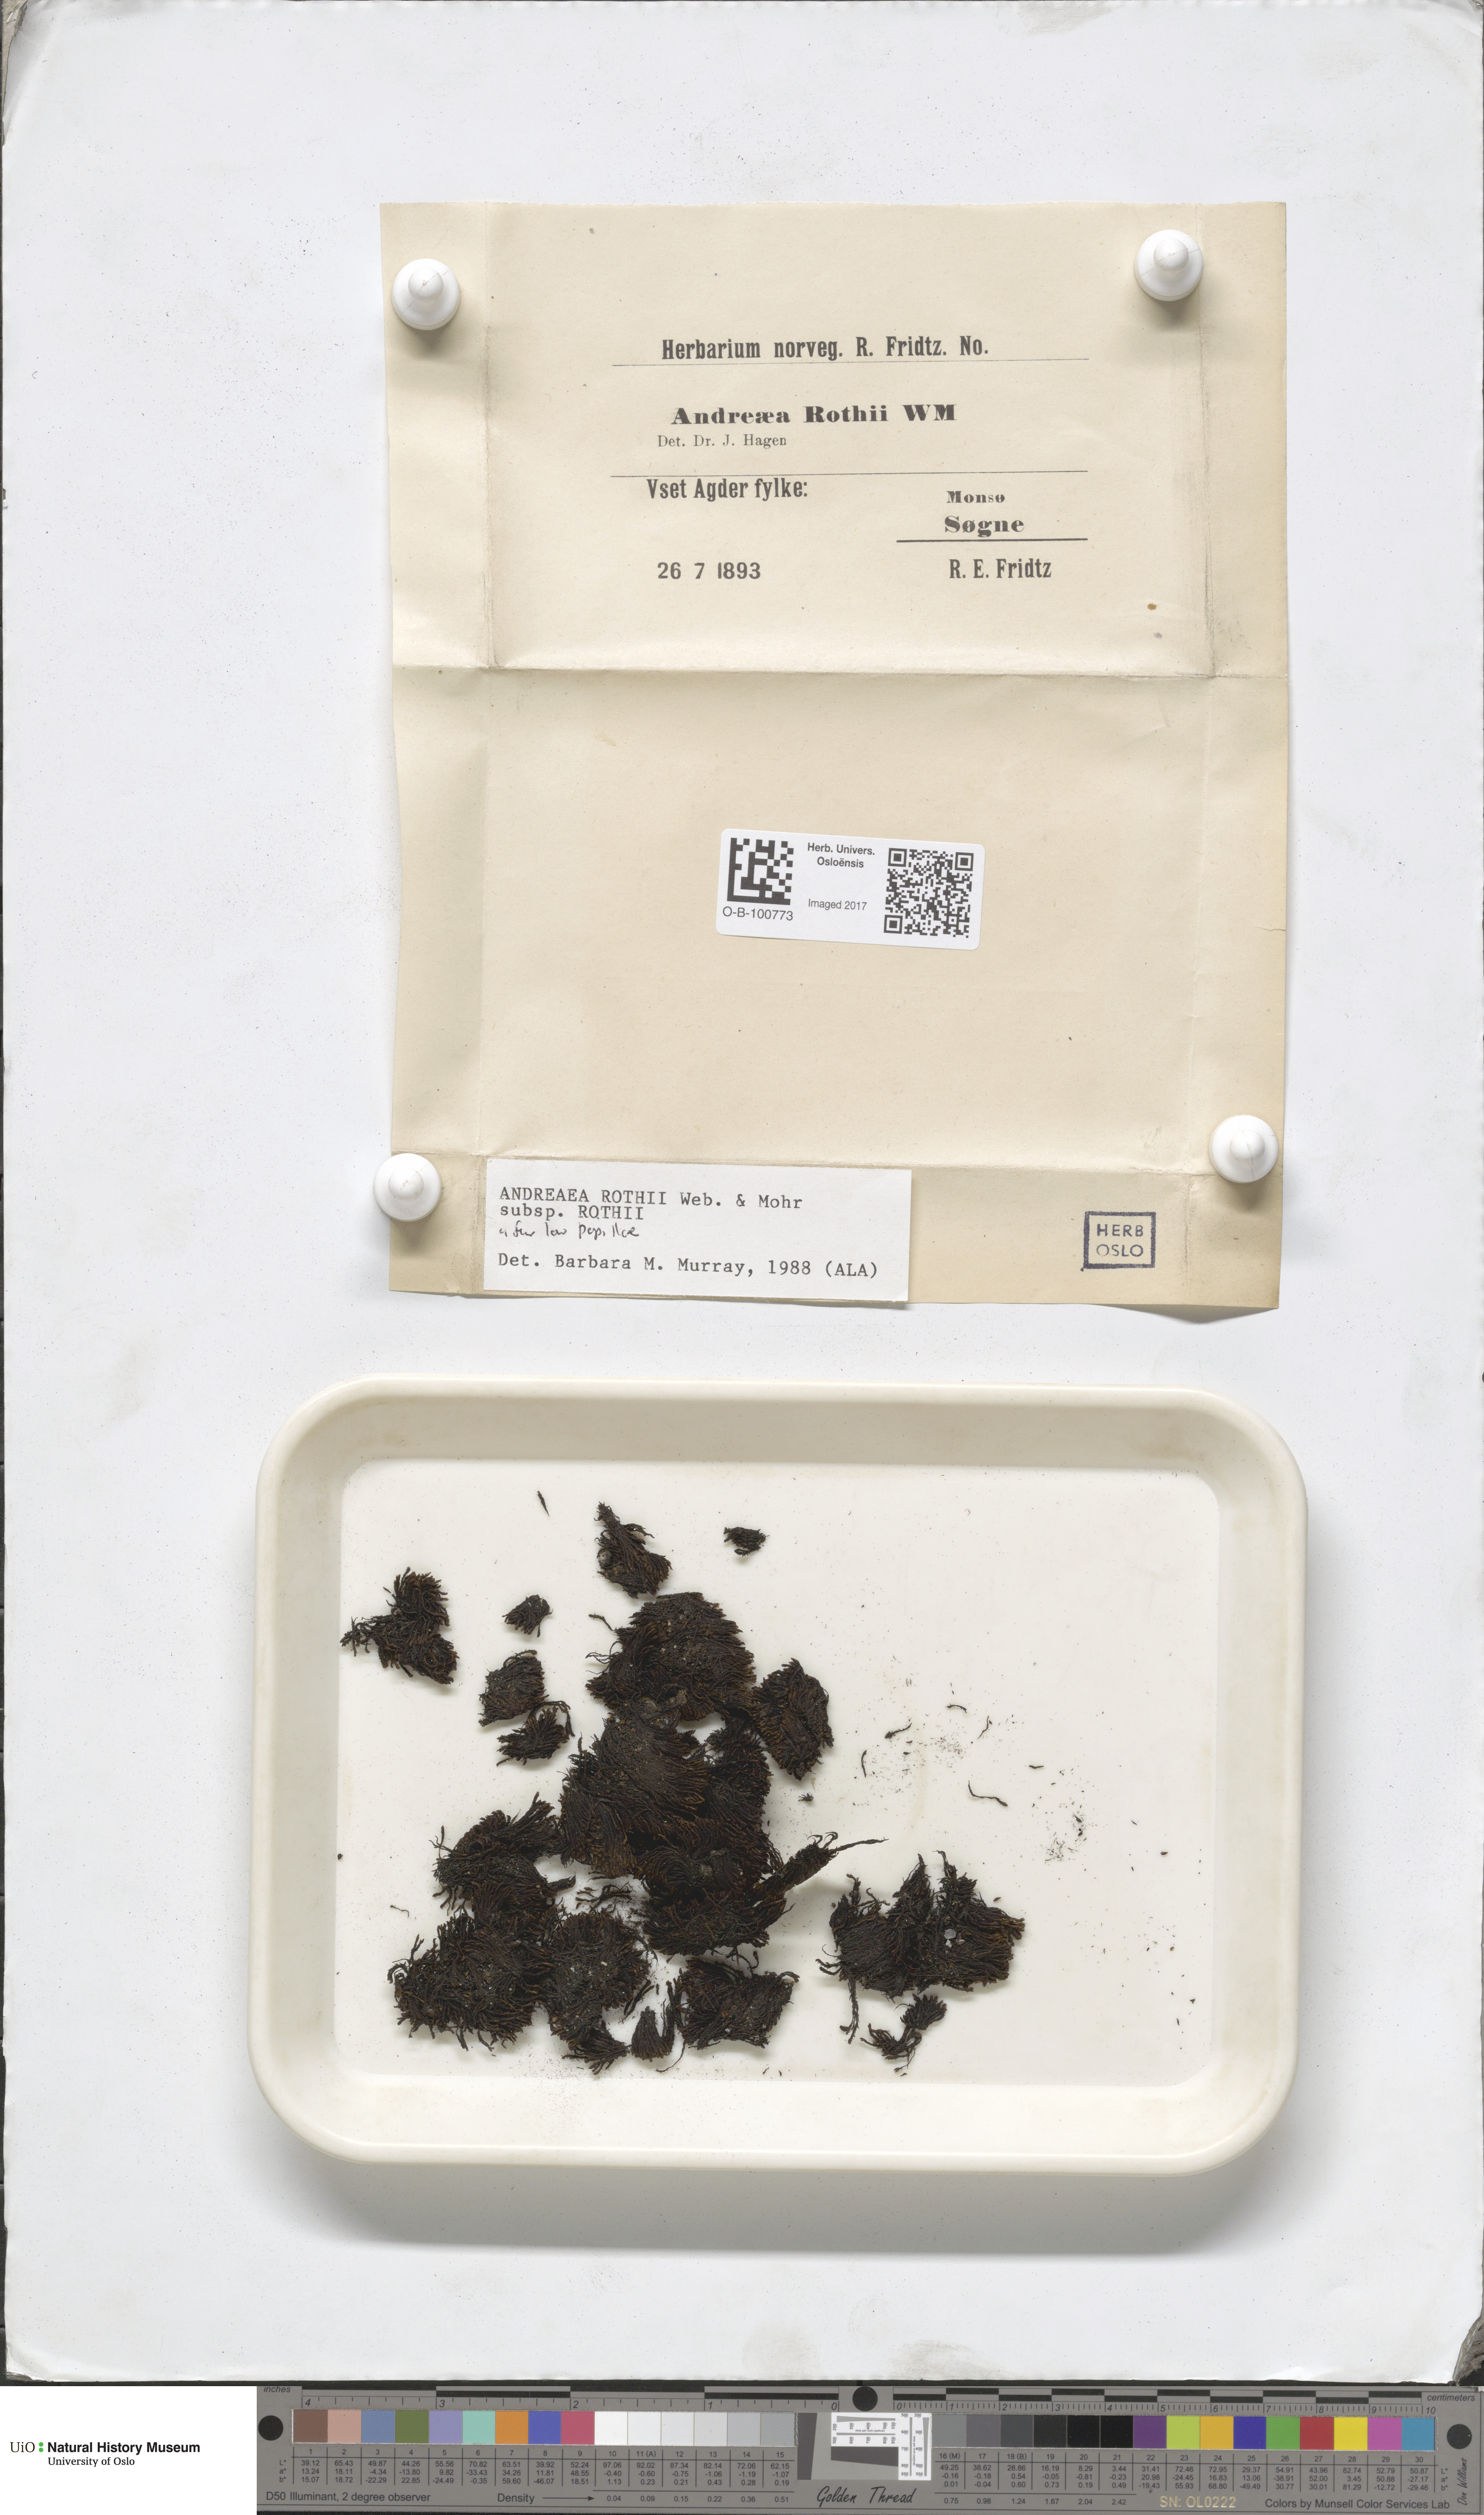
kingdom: Plantae
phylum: Bryophyta
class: Andreaeopsida
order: Andreaeales
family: Andreaeaceae
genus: Andreaea
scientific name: Andreaea rothii
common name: Dusky rock moss
